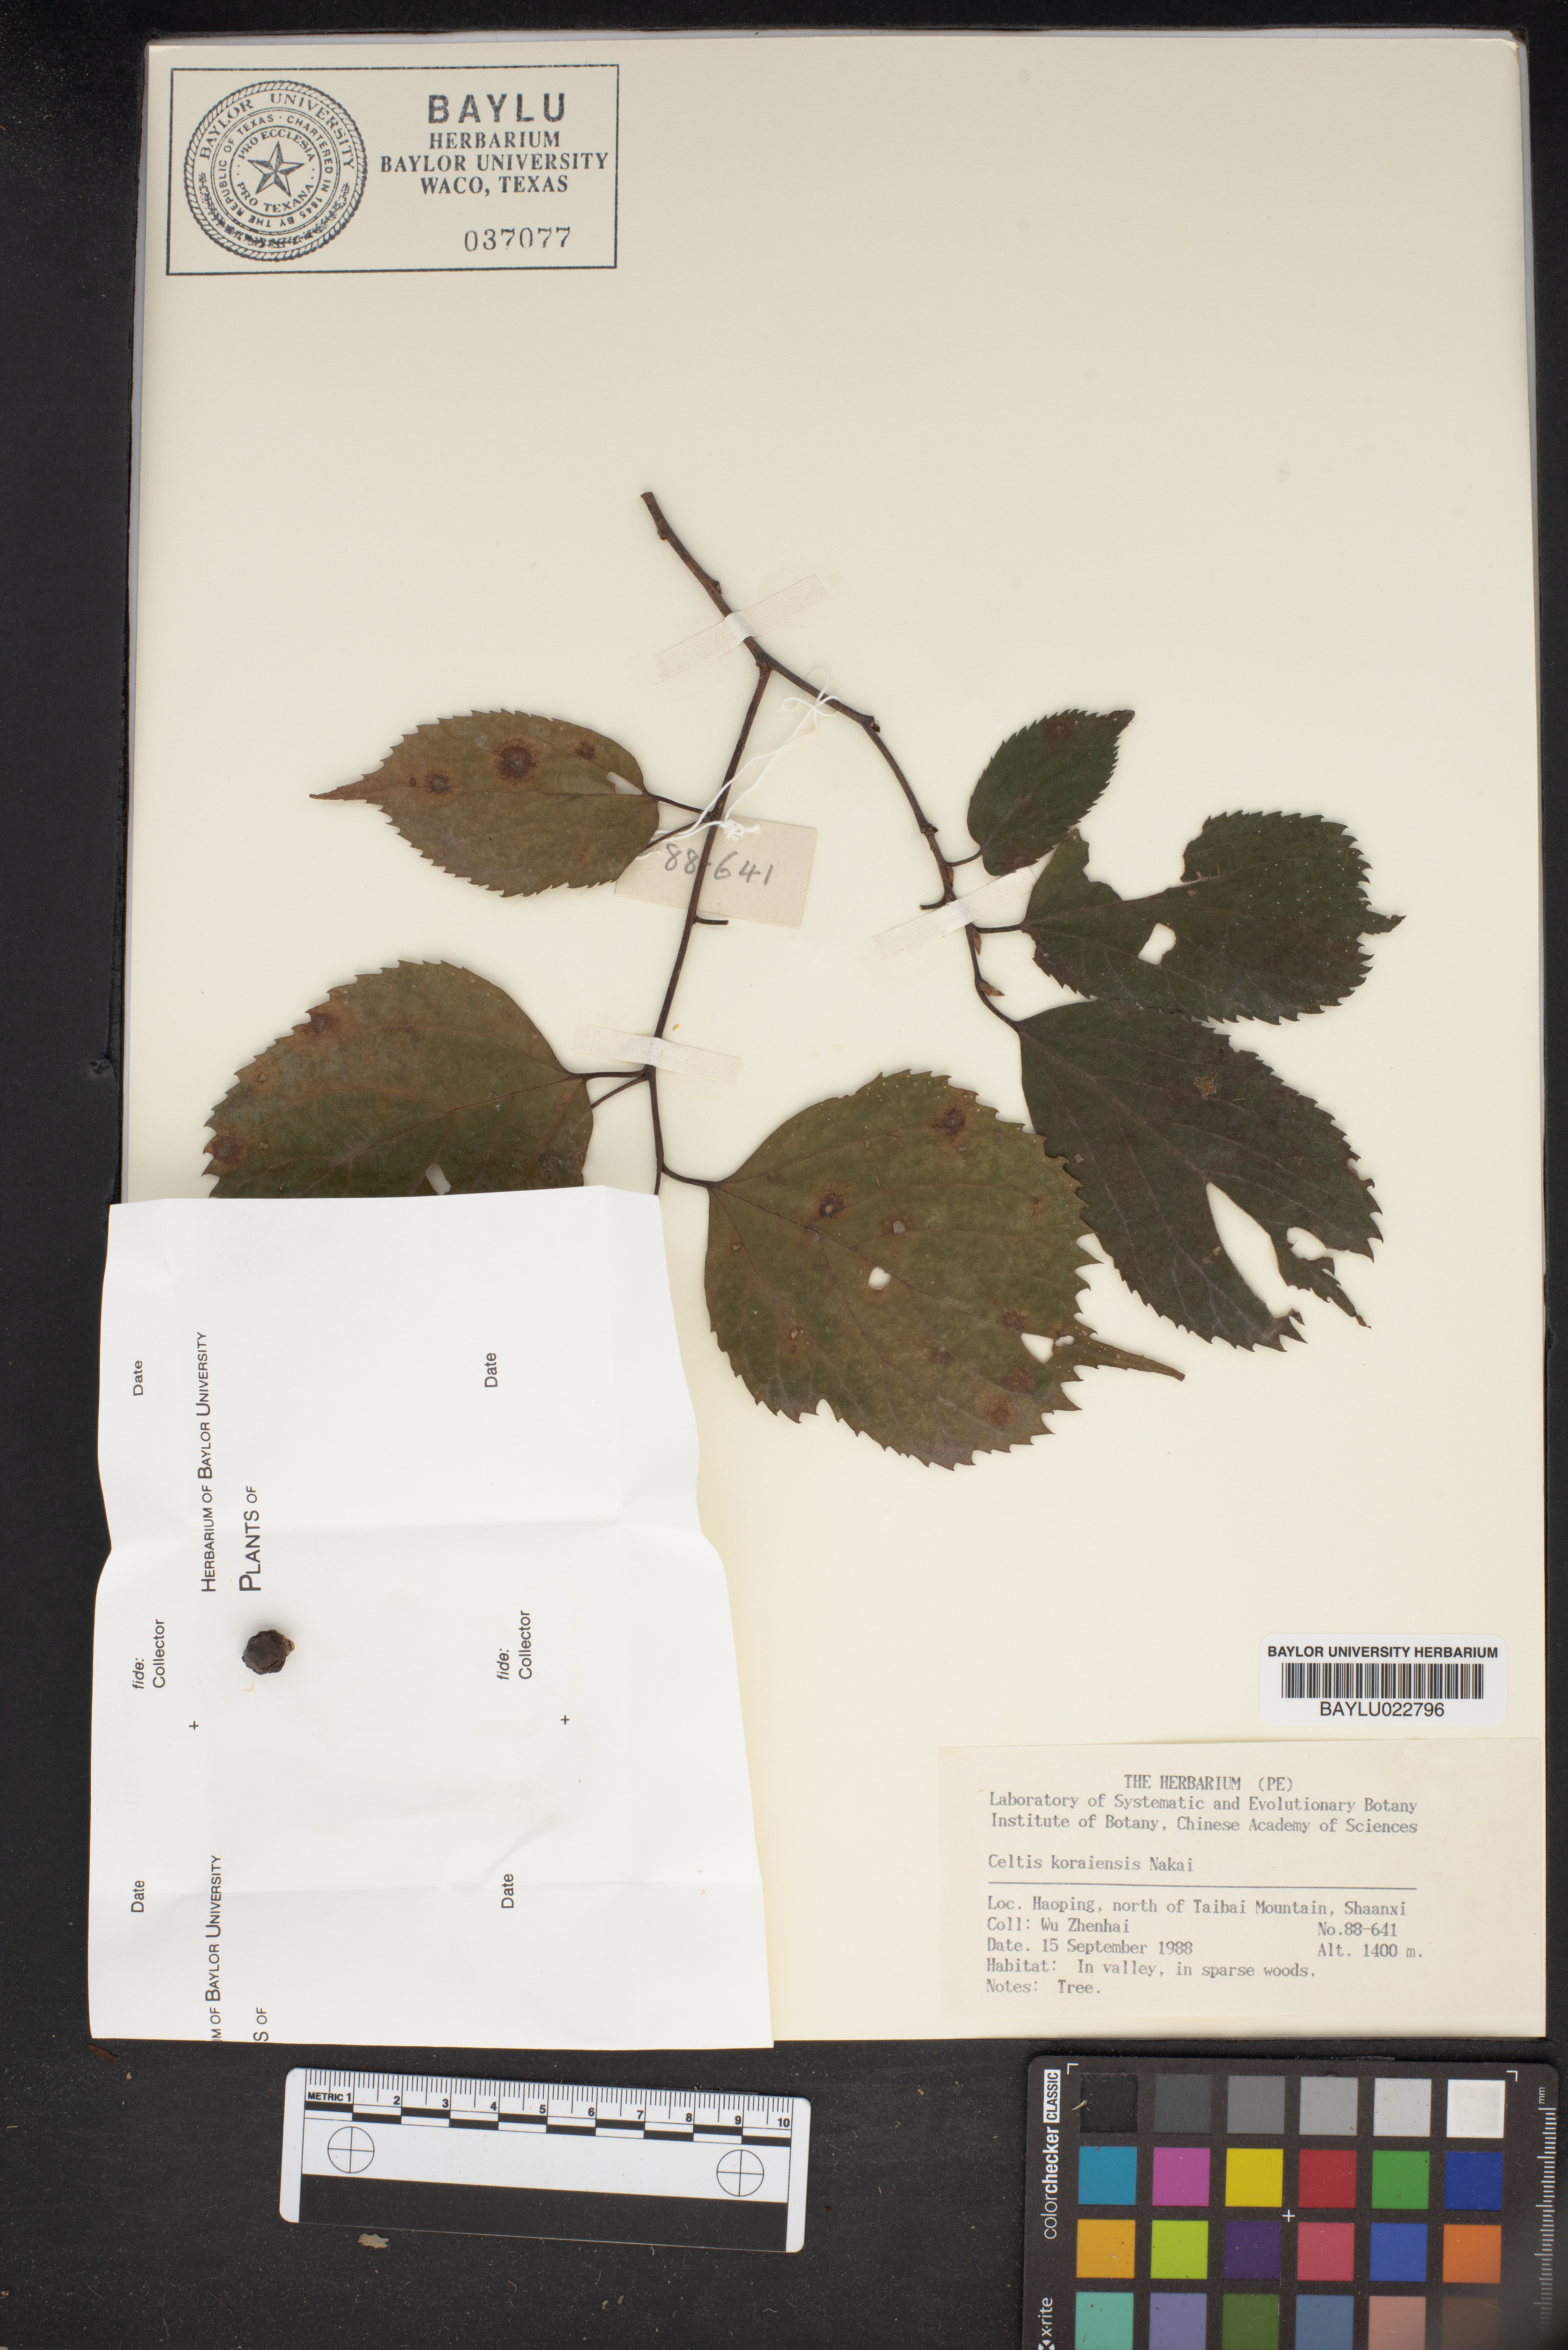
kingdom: Plantae
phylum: Tracheophyta
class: Magnoliopsida
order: Rosales
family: Cannabaceae
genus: Celtis
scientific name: Celtis koraiensis
